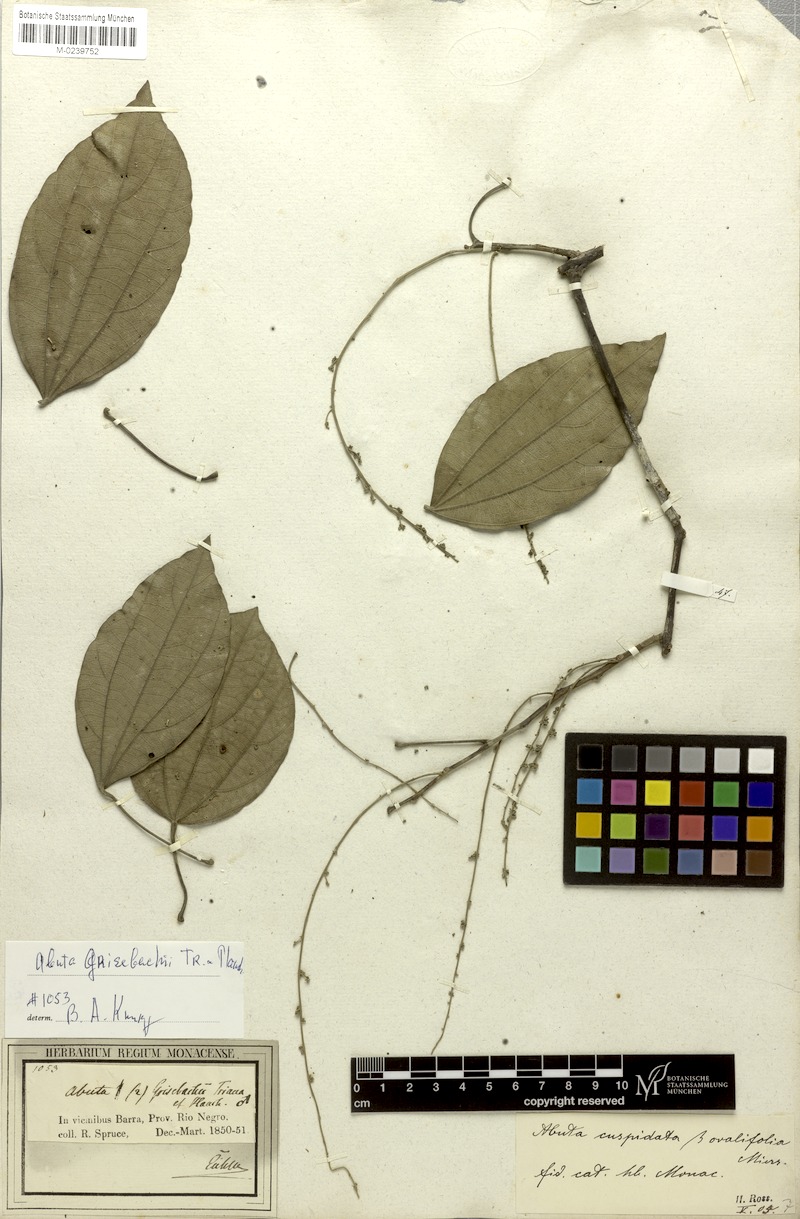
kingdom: Plantae
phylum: Tracheophyta
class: Magnoliopsida
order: Ranunculales
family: Menispermaceae
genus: Abuta
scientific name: Abuta grisebachii
